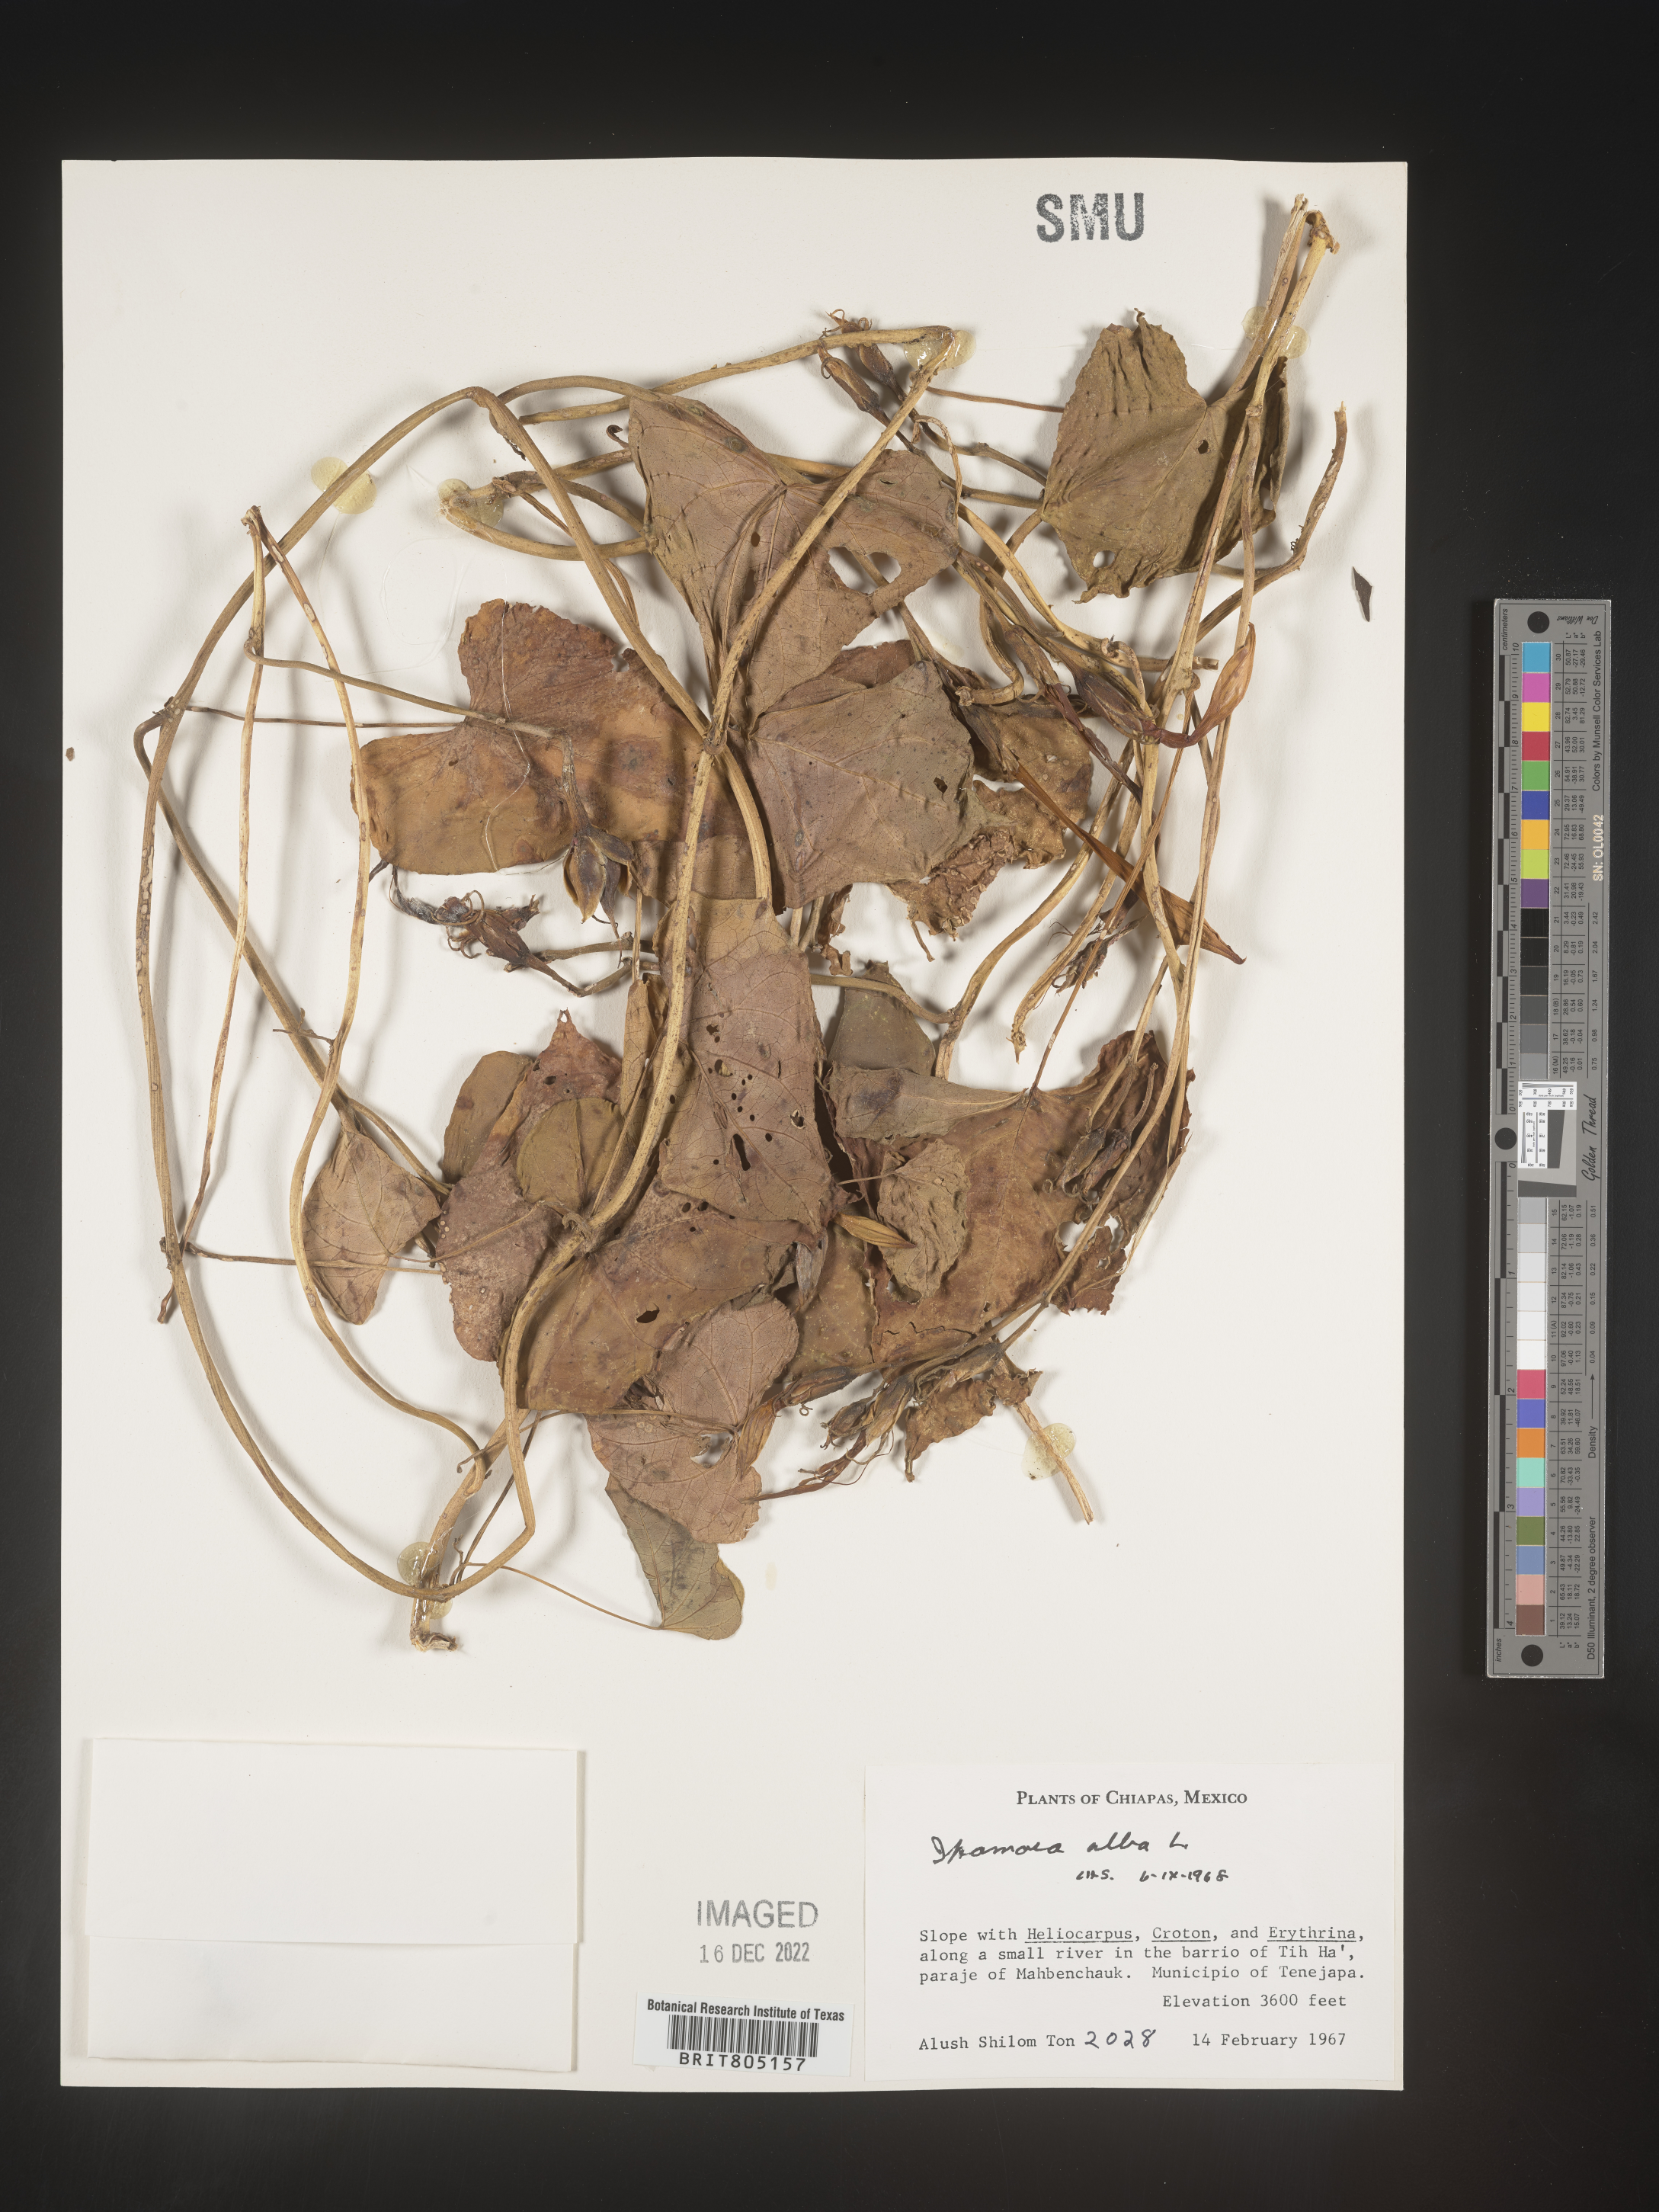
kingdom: Plantae
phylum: Tracheophyta
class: Magnoliopsida
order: Solanales
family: Convolvulaceae
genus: Ipomoea
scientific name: Ipomoea
